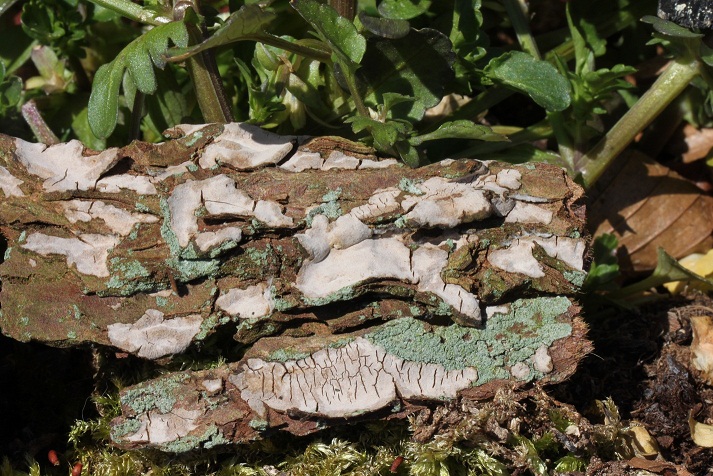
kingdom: Fungi
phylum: Basidiomycota
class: Agaricomycetes
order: Russulales
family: Echinodontiaceae
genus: Amylostereum
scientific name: Amylostereum laevigatum
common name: ene-lædersvamp
